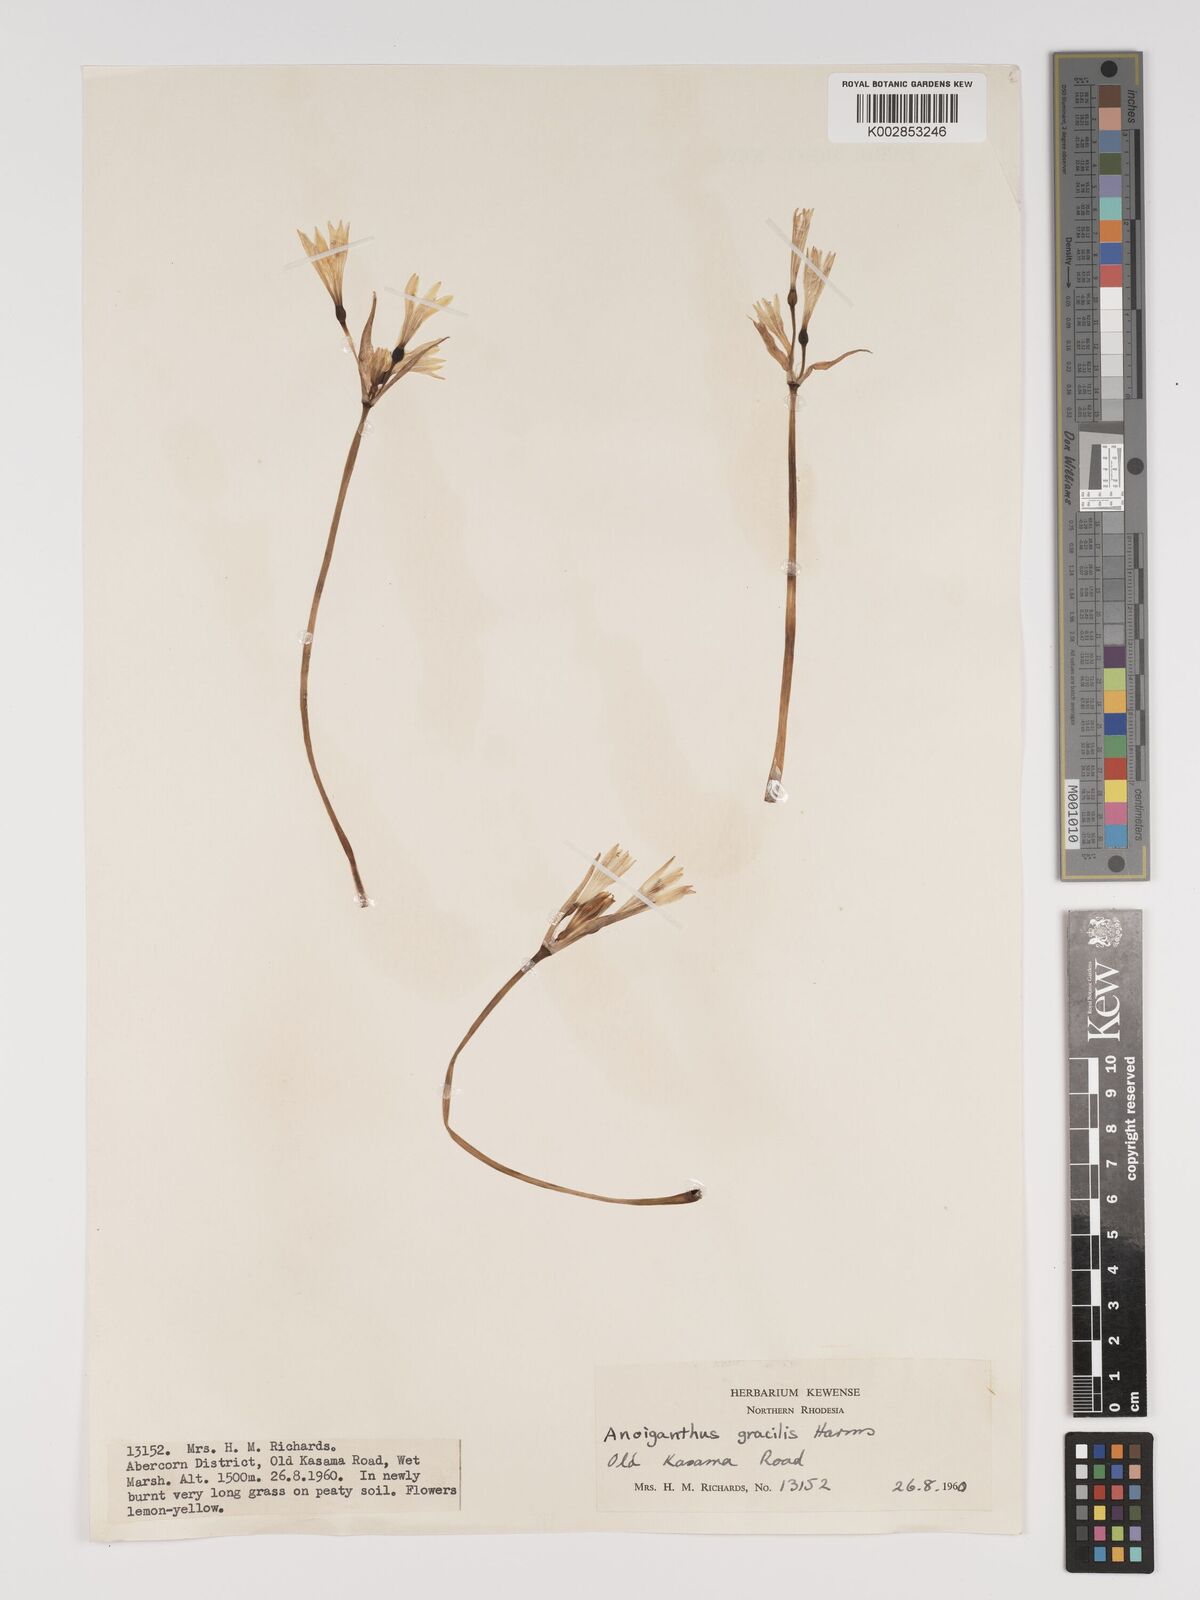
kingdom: Plantae
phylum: Tracheophyta
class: Liliopsida
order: Asparagales
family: Amaryllidaceae
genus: Cyrtanthus
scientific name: Cyrtanthus breviflorus
